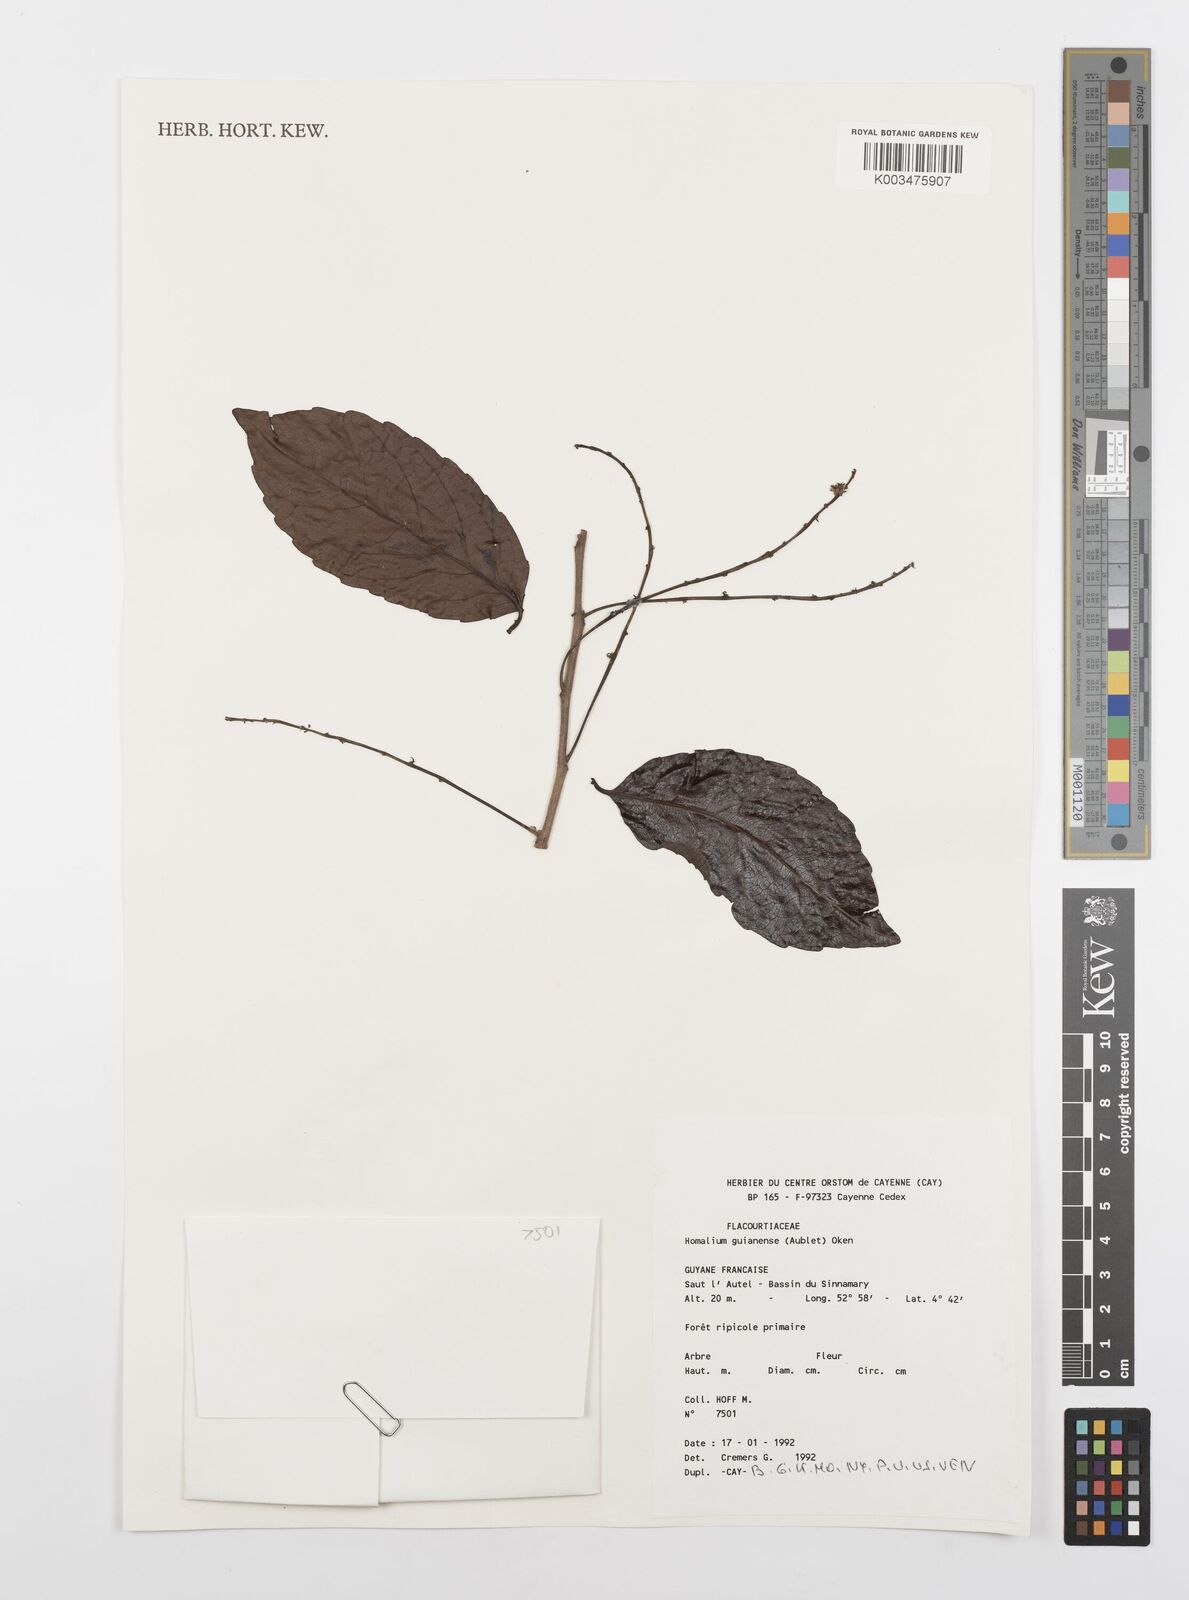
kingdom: Plantae
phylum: Tracheophyta
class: Magnoliopsida
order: Malpighiales
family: Salicaceae
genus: Homalium
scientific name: Homalium guianense
